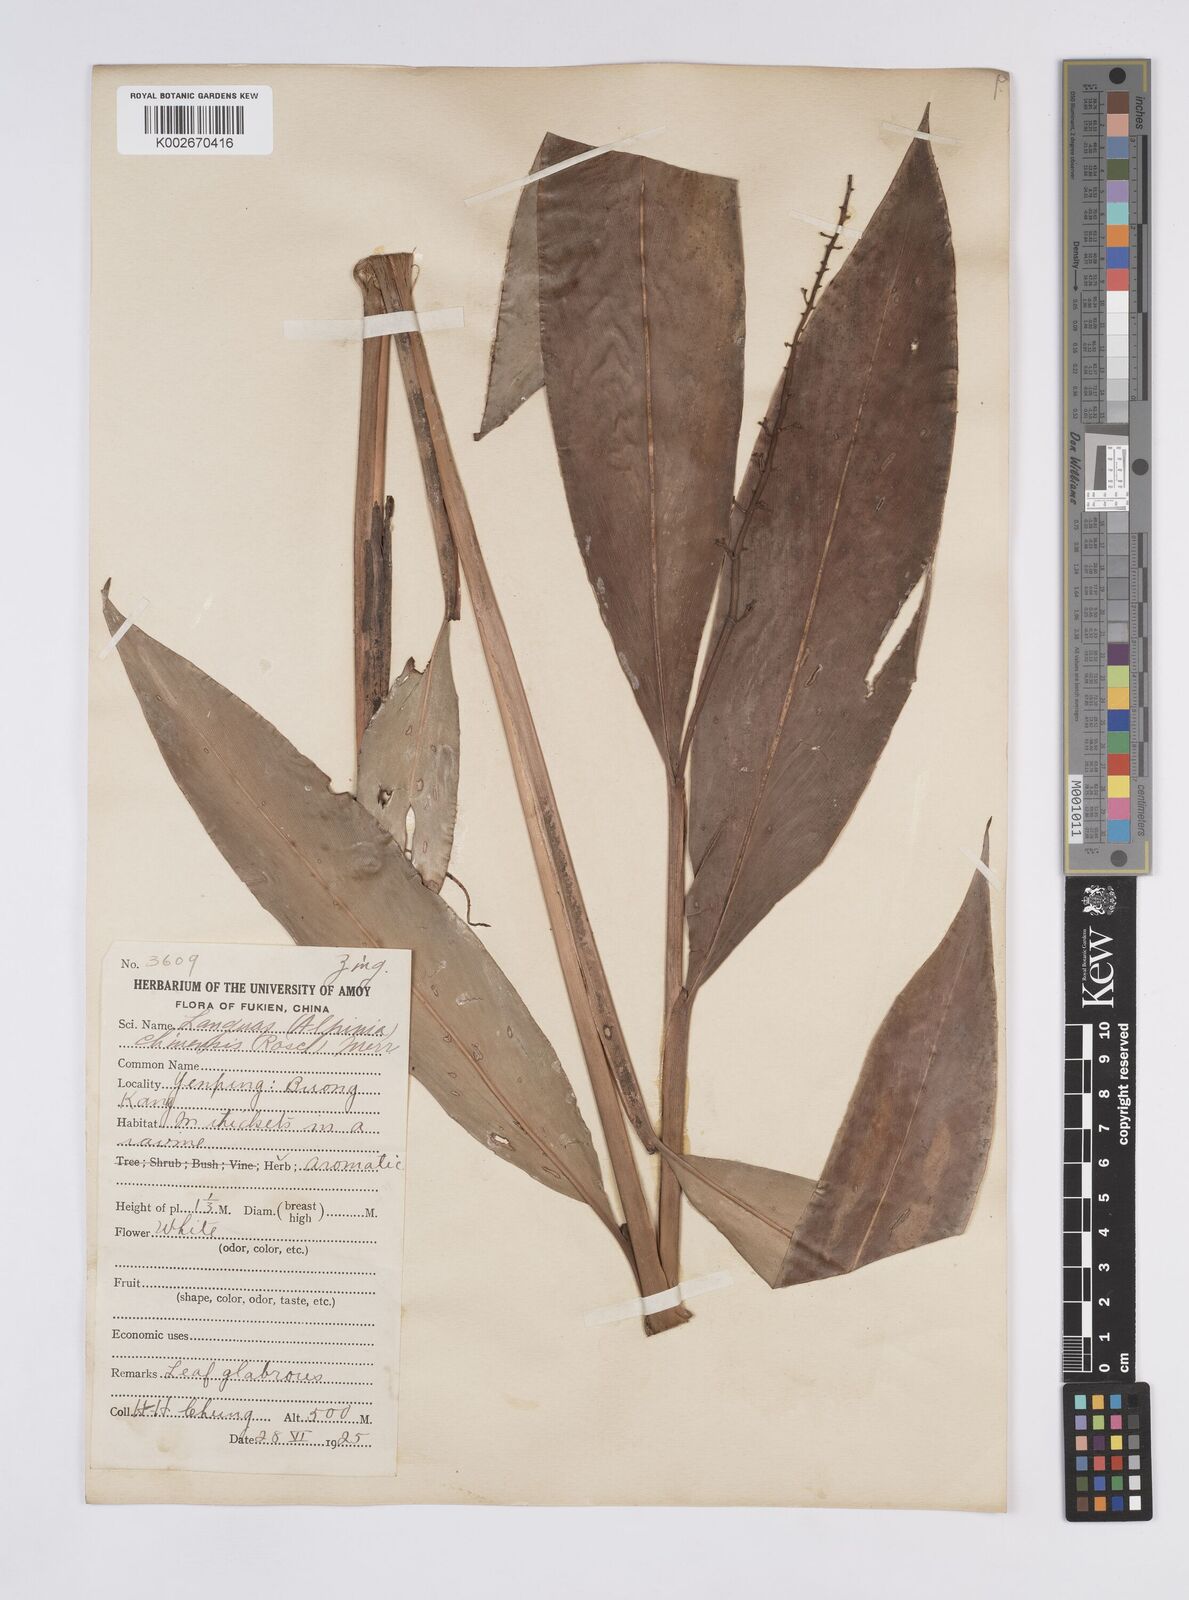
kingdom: Plantae
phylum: Tracheophyta
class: Liliopsida
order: Zingiberales
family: Zingiberaceae
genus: Alpinia
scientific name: Alpinia chinensis
